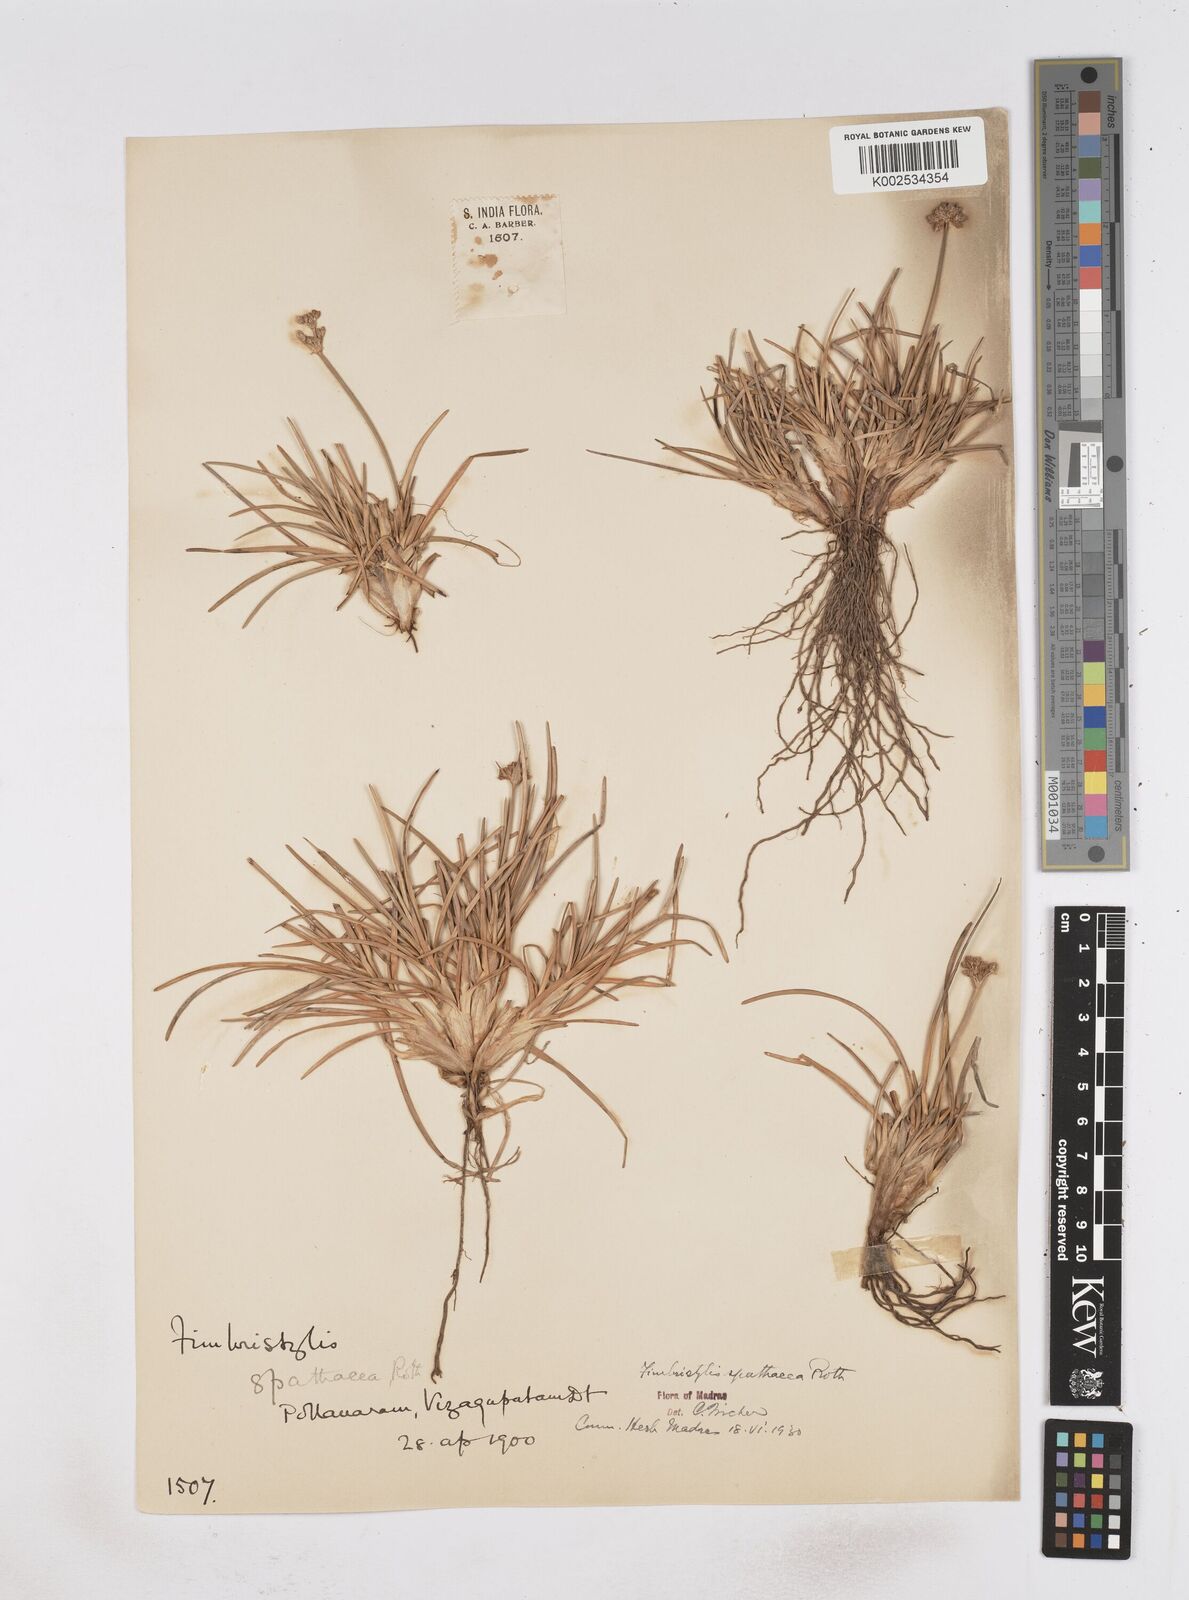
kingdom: Plantae
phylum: Tracheophyta
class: Liliopsida
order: Poales
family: Cyperaceae
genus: Fimbristylis
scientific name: Fimbristylis cymosa
